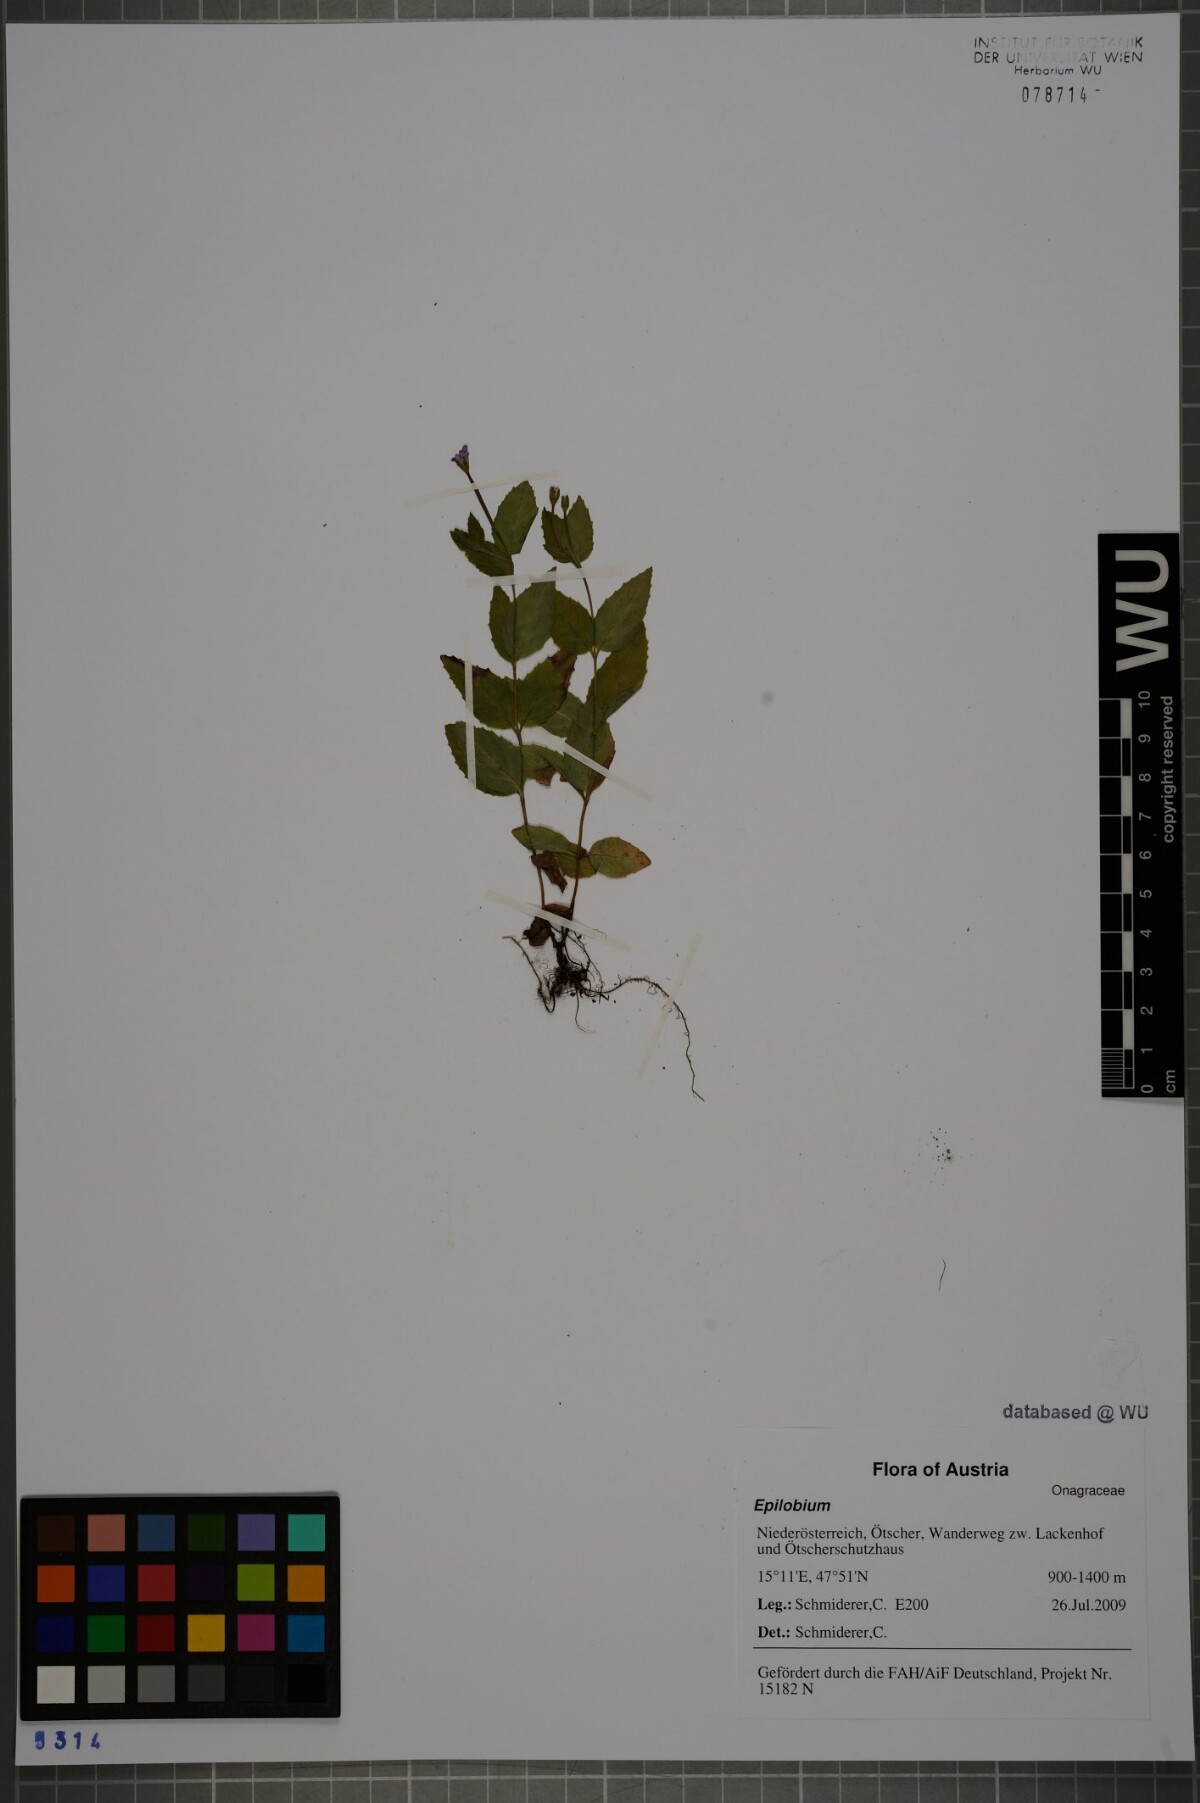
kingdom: Plantae
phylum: Tracheophyta
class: Magnoliopsida
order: Myrtales
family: Onagraceae
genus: Epilobium
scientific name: Epilobium montanum
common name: Broad-leaved willowherb
